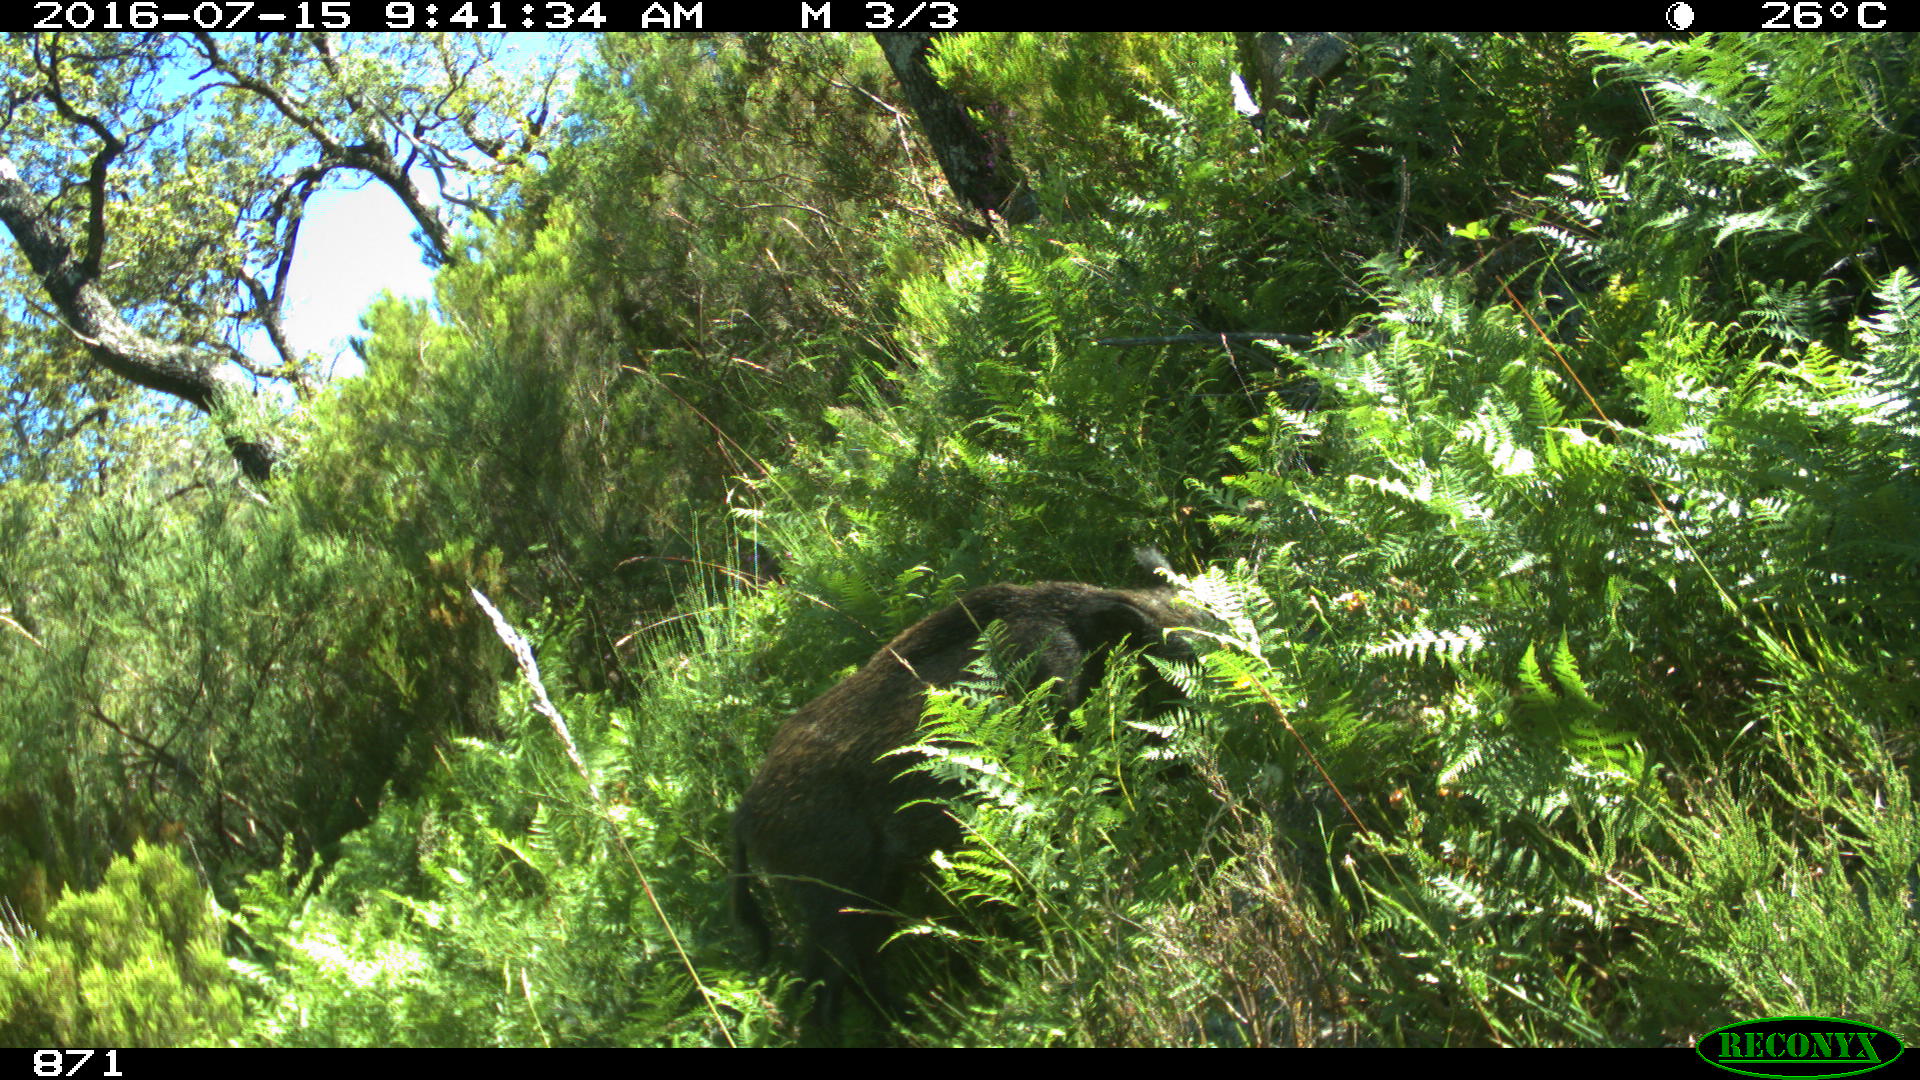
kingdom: Animalia
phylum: Chordata
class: Mammalia
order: Artiodactyla
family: Suidae
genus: Sus
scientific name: Sus scrofa
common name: Wild boar
